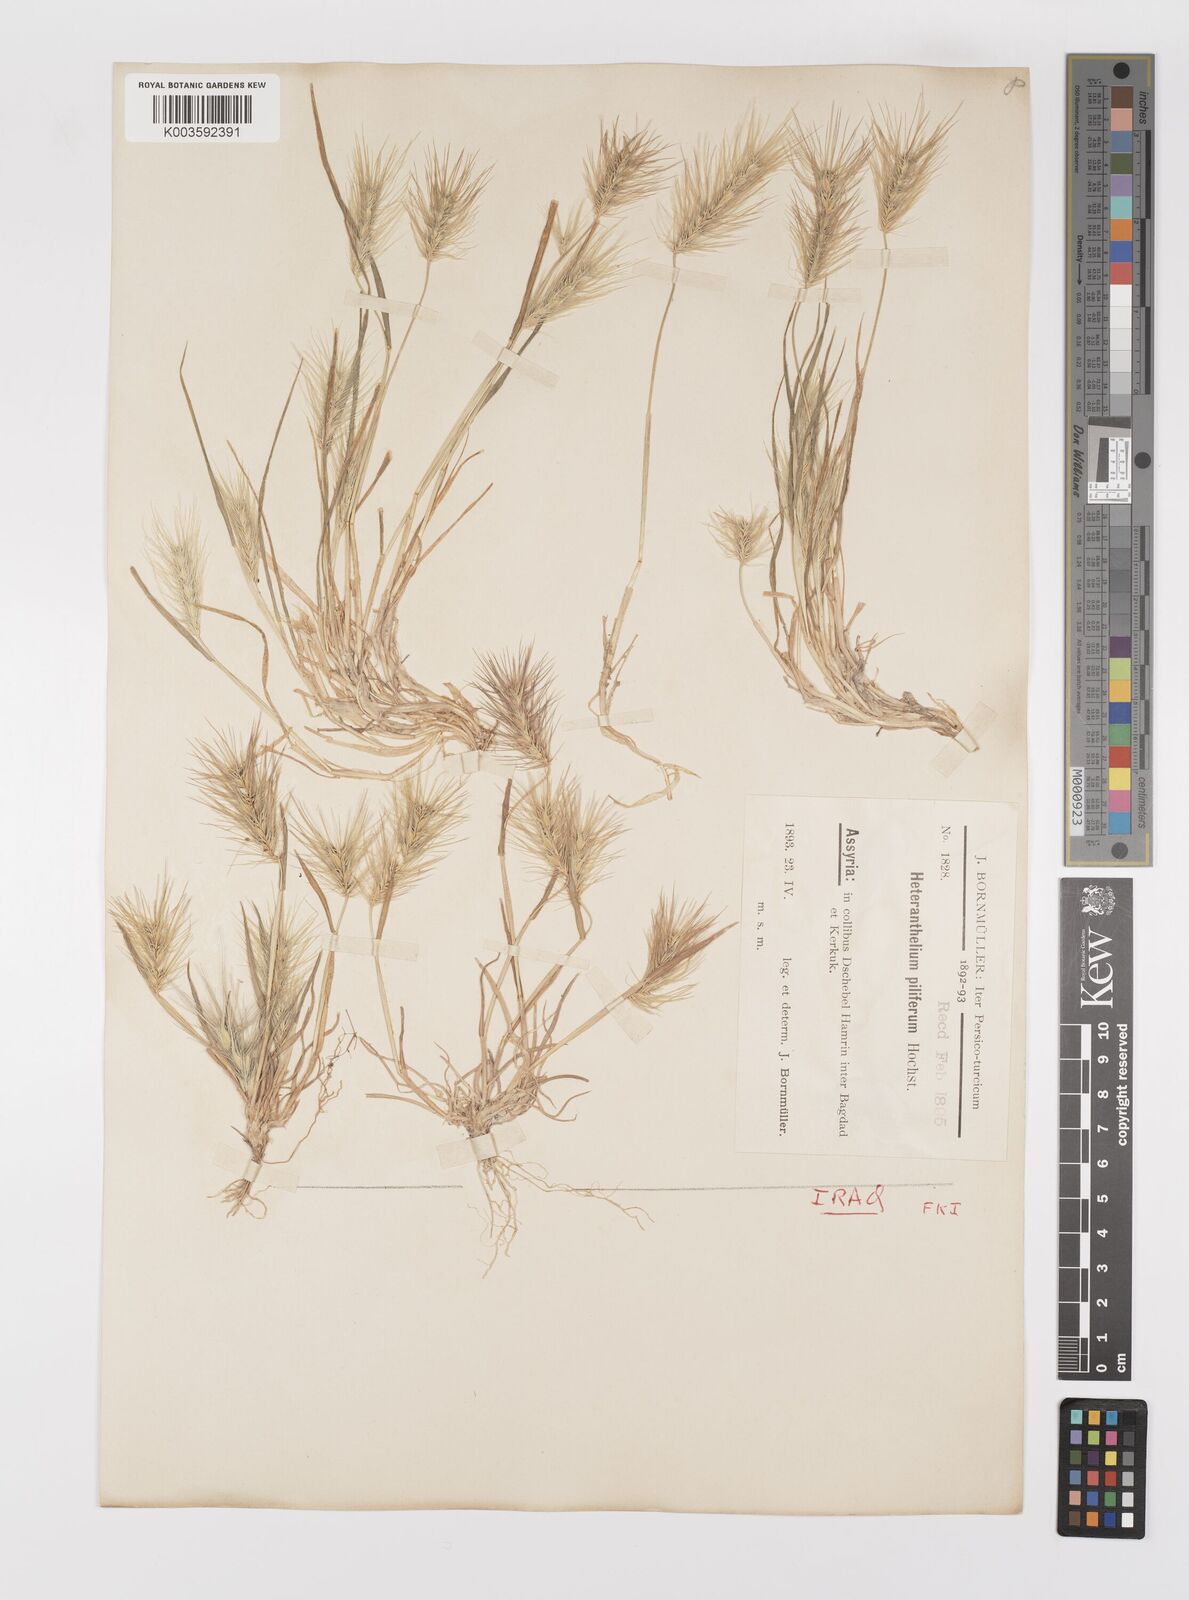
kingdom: Plantae
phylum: Tracheophyta
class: Liliopsida
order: Poales
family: Poaceae
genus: Heteranthelium
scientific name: Heteranthelium piliferum
